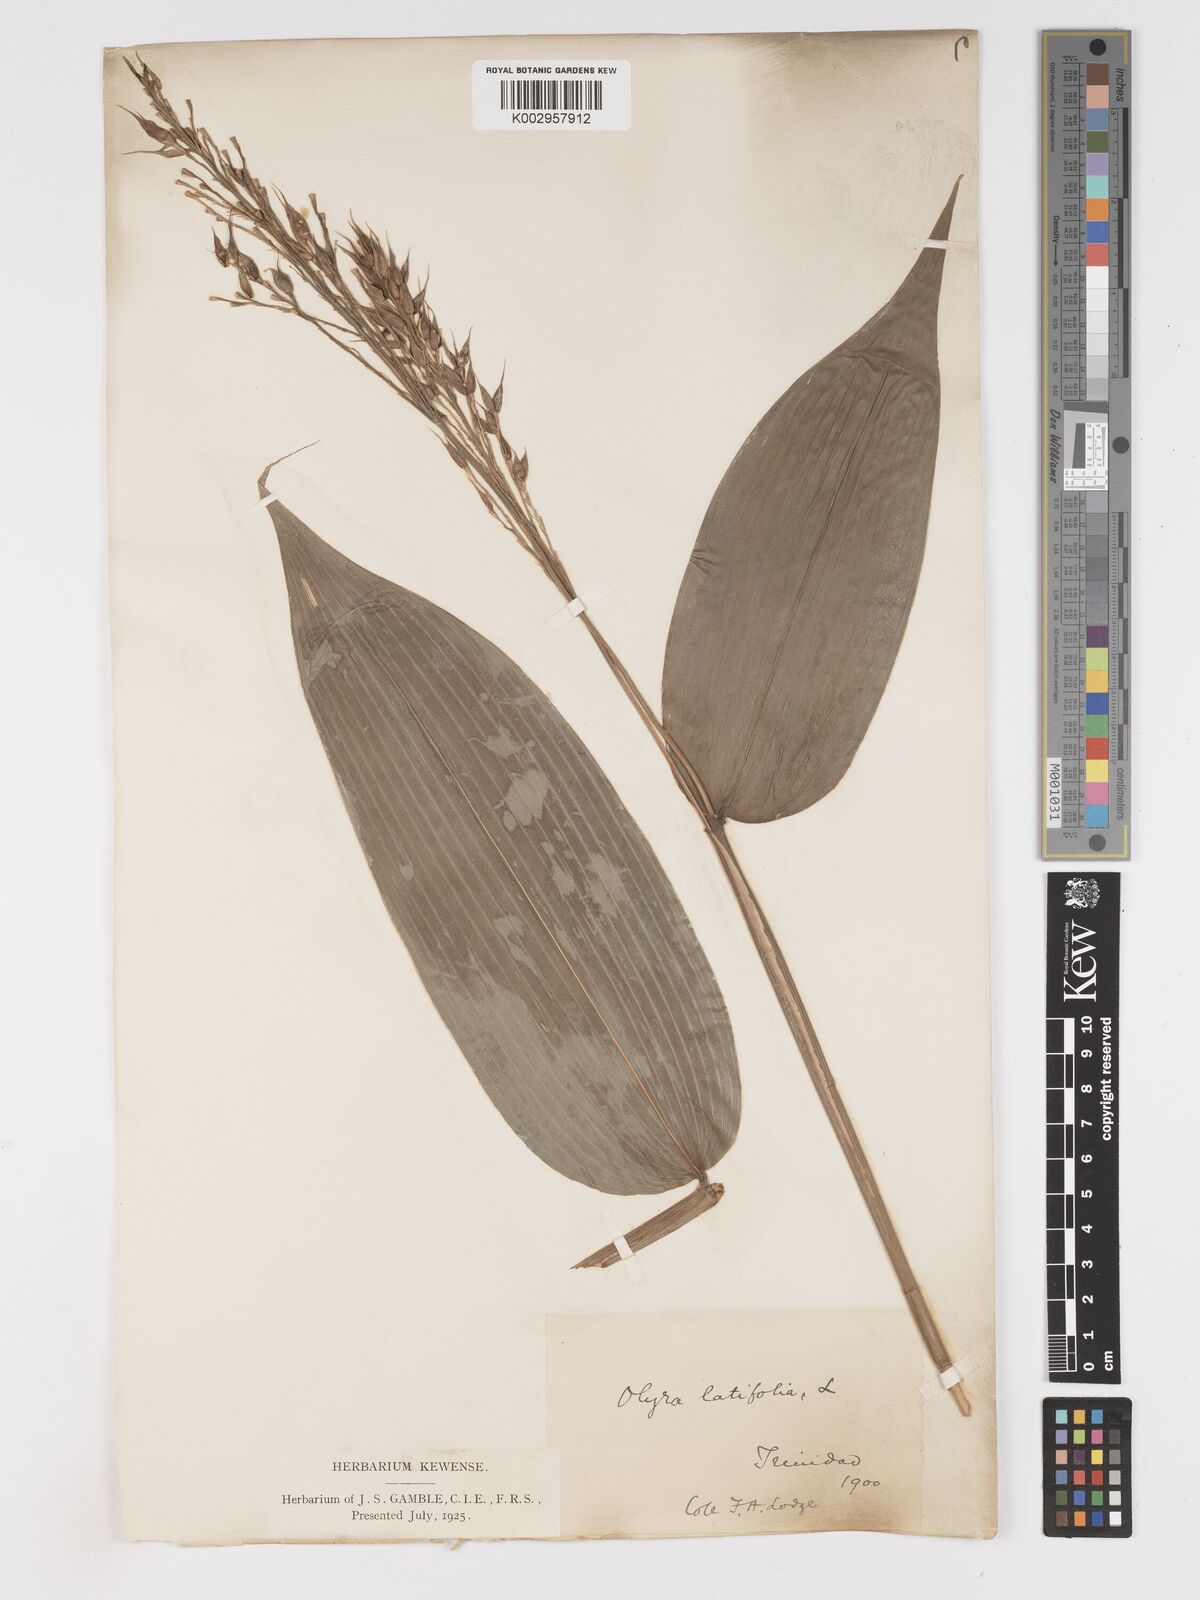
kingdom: Plantae
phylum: Tracheophyta
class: Liliopsida
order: Poales
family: Poaceae
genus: Olyra
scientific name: Olyra latifolia
